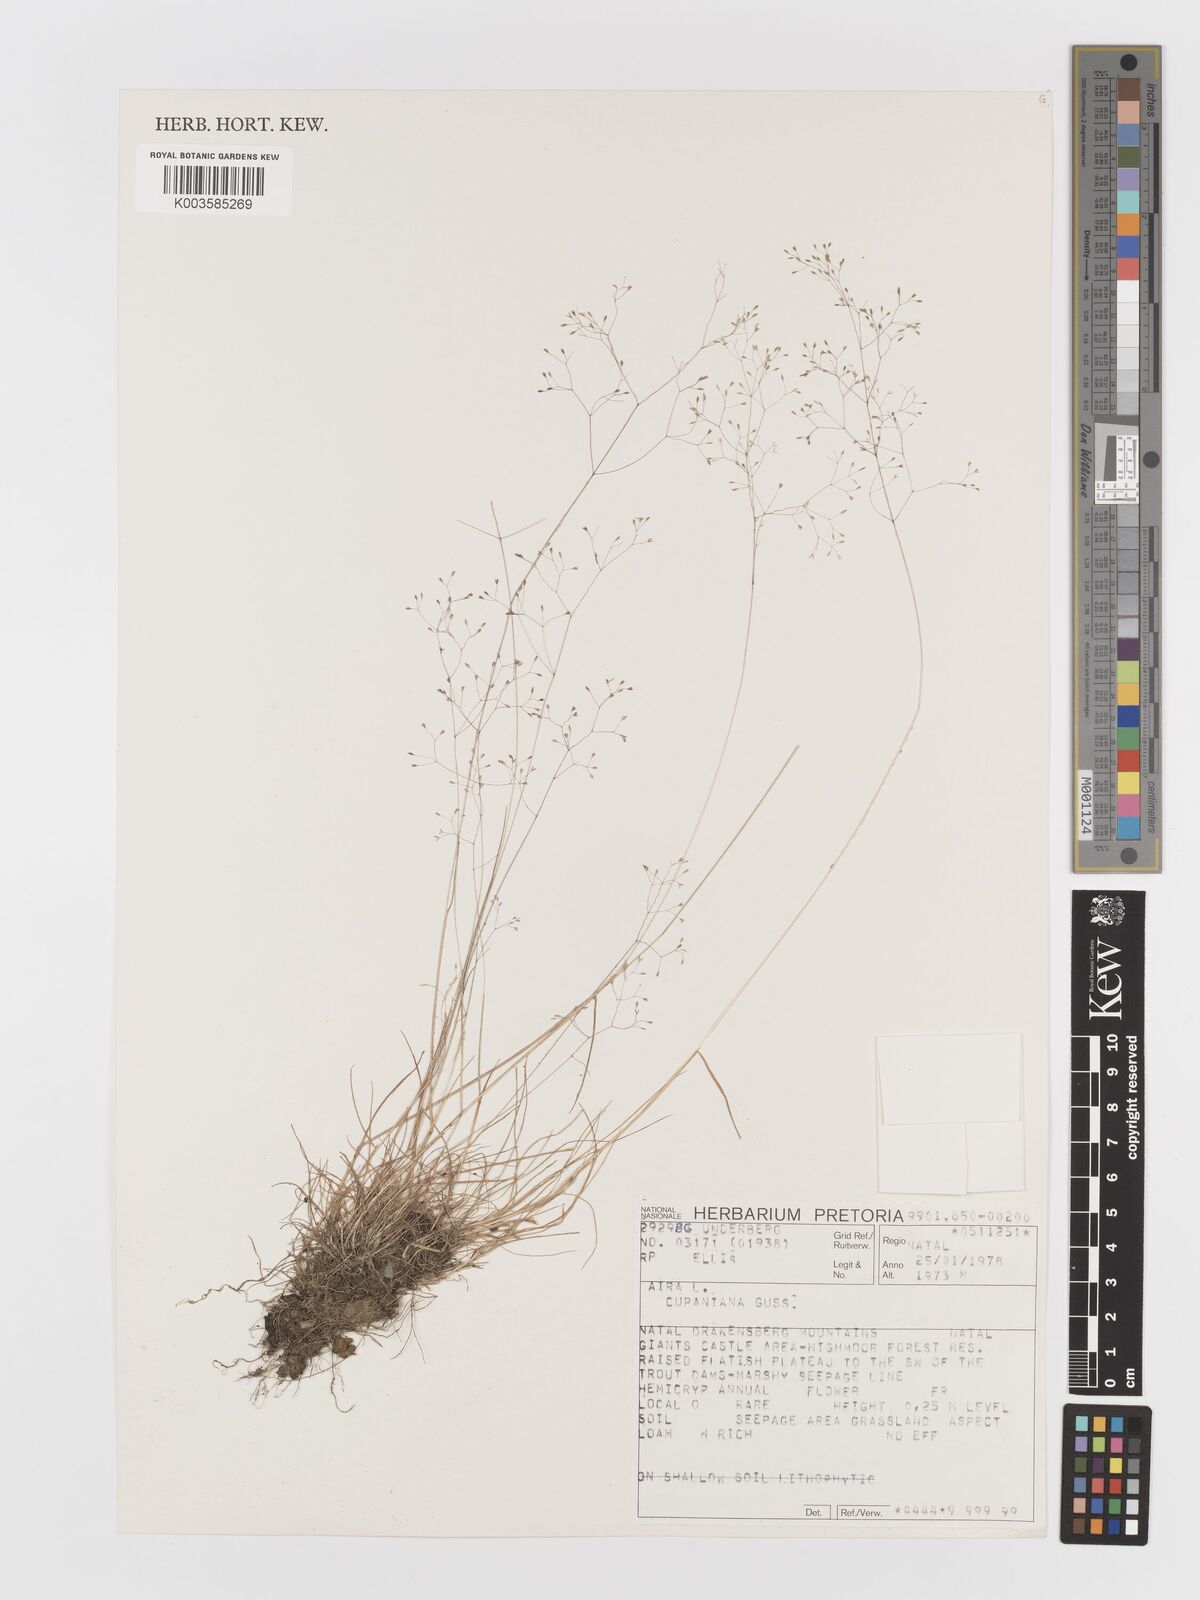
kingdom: Plantae
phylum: Tracheophyta
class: Liliopsida
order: Poales
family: Poaceae
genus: Aira
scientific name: Aira cupaniana
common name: Silver hairgrass
